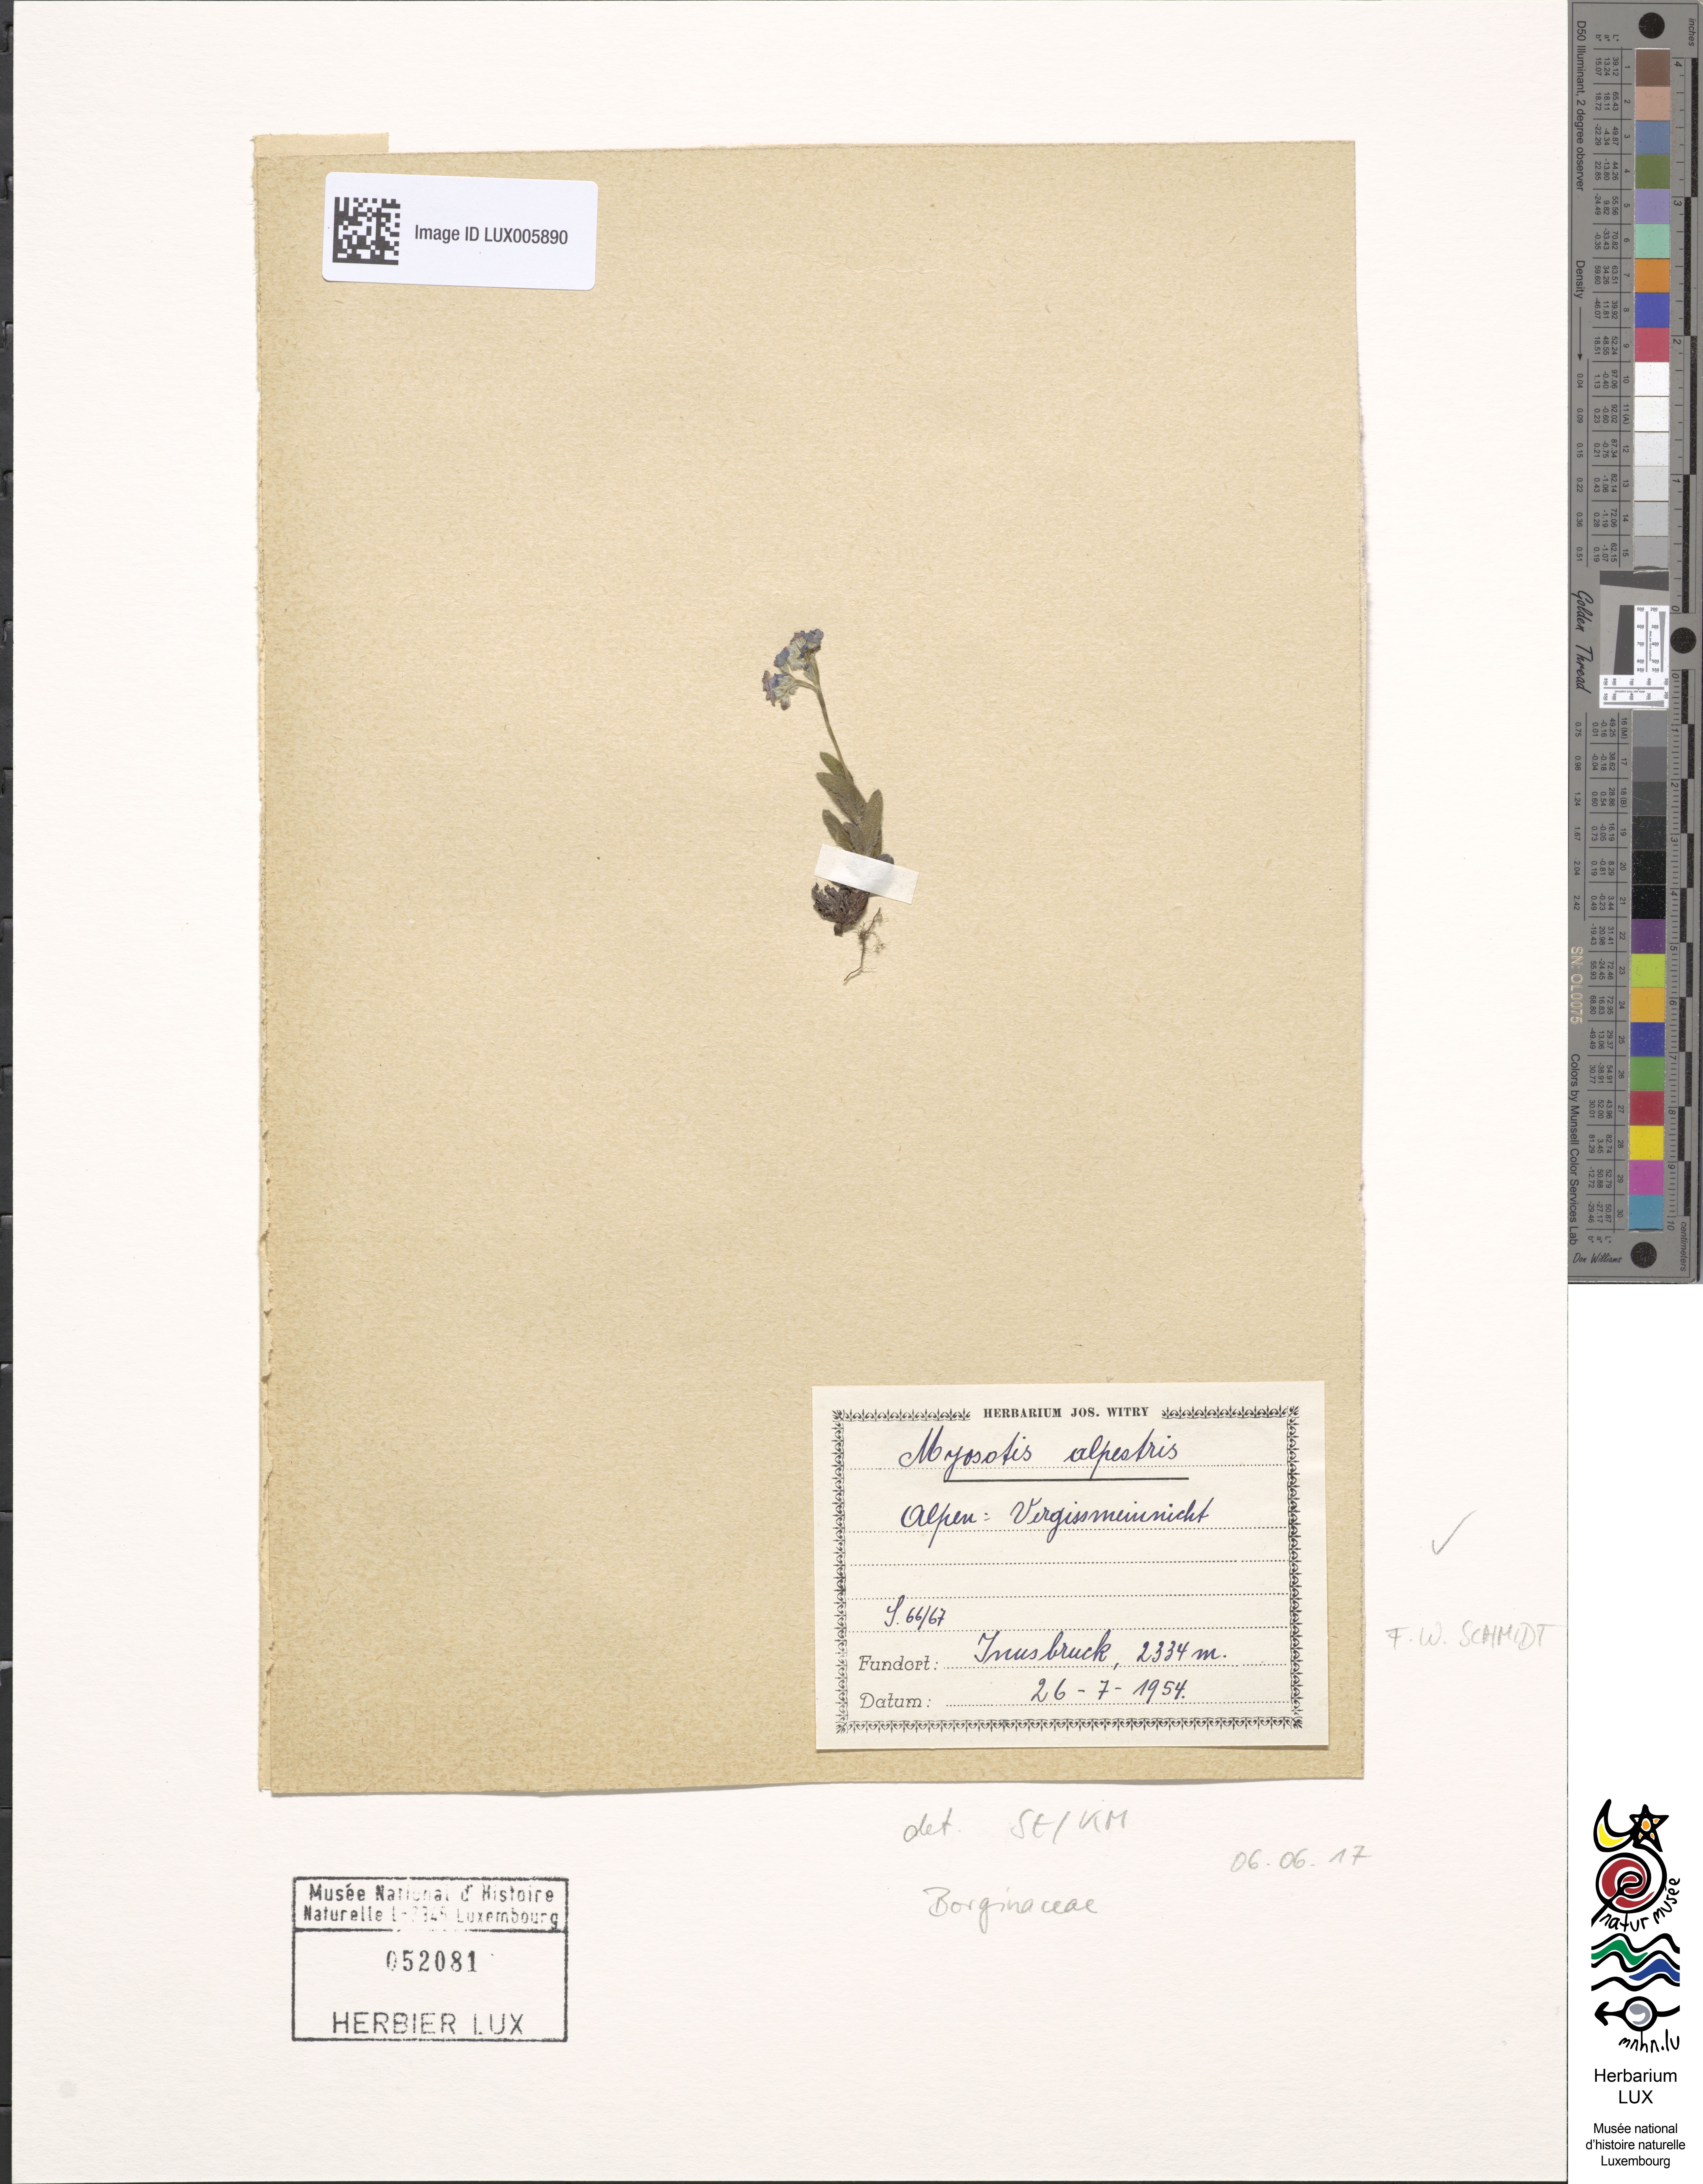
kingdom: Plantae
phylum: Tracheophyta
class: Magnoliopsida
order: Boraginales
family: Boraginaceae
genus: Myosotis
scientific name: Myosotis alpestris
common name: Alpine forget-me-not
